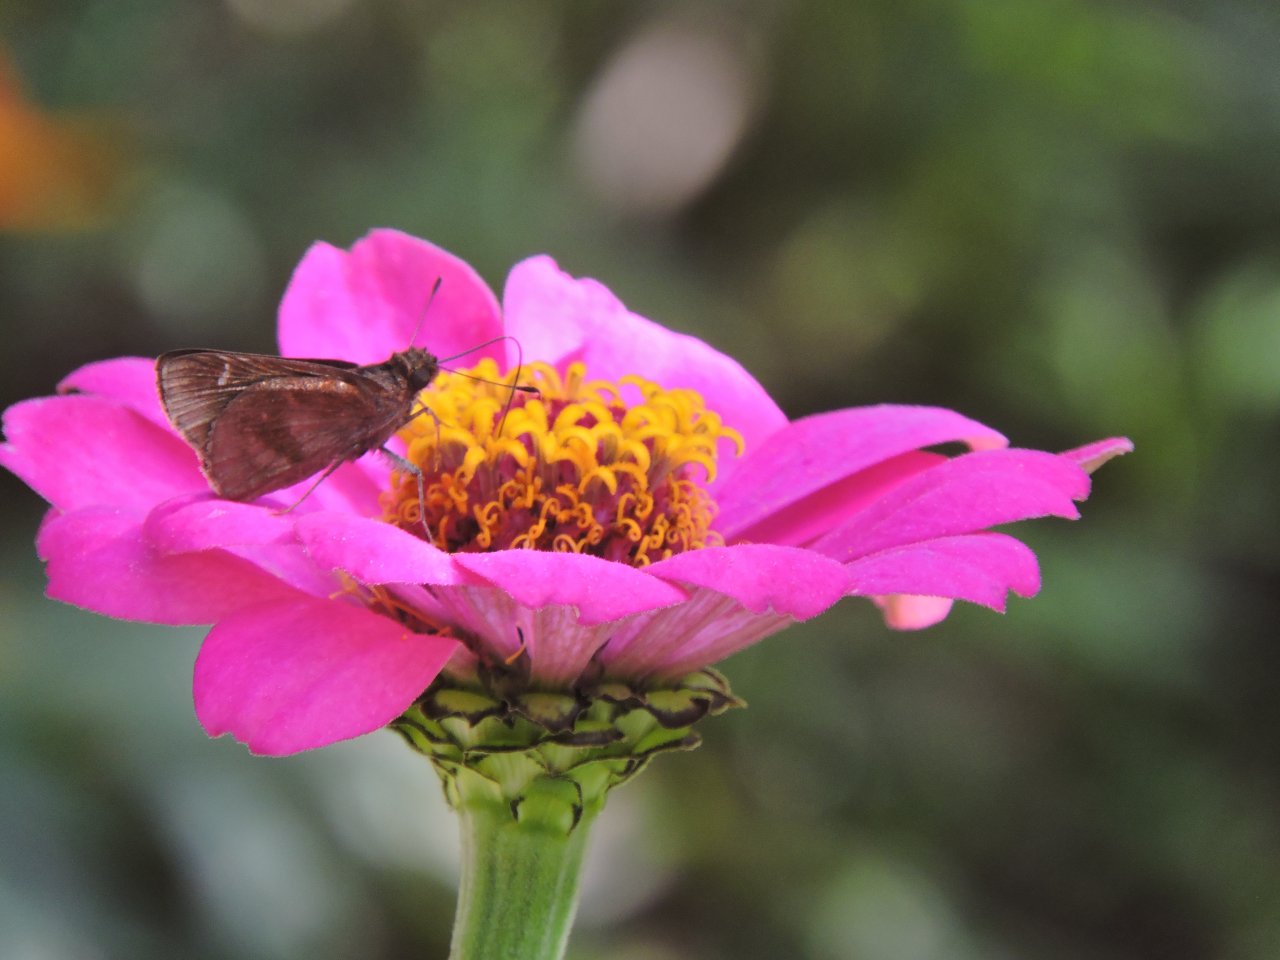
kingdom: Animalia
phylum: Arthropoda
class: Insecta
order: Lepidoptera
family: Hesperiidae
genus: Lerema
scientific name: Lerema accius
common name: Clouded Skipper
